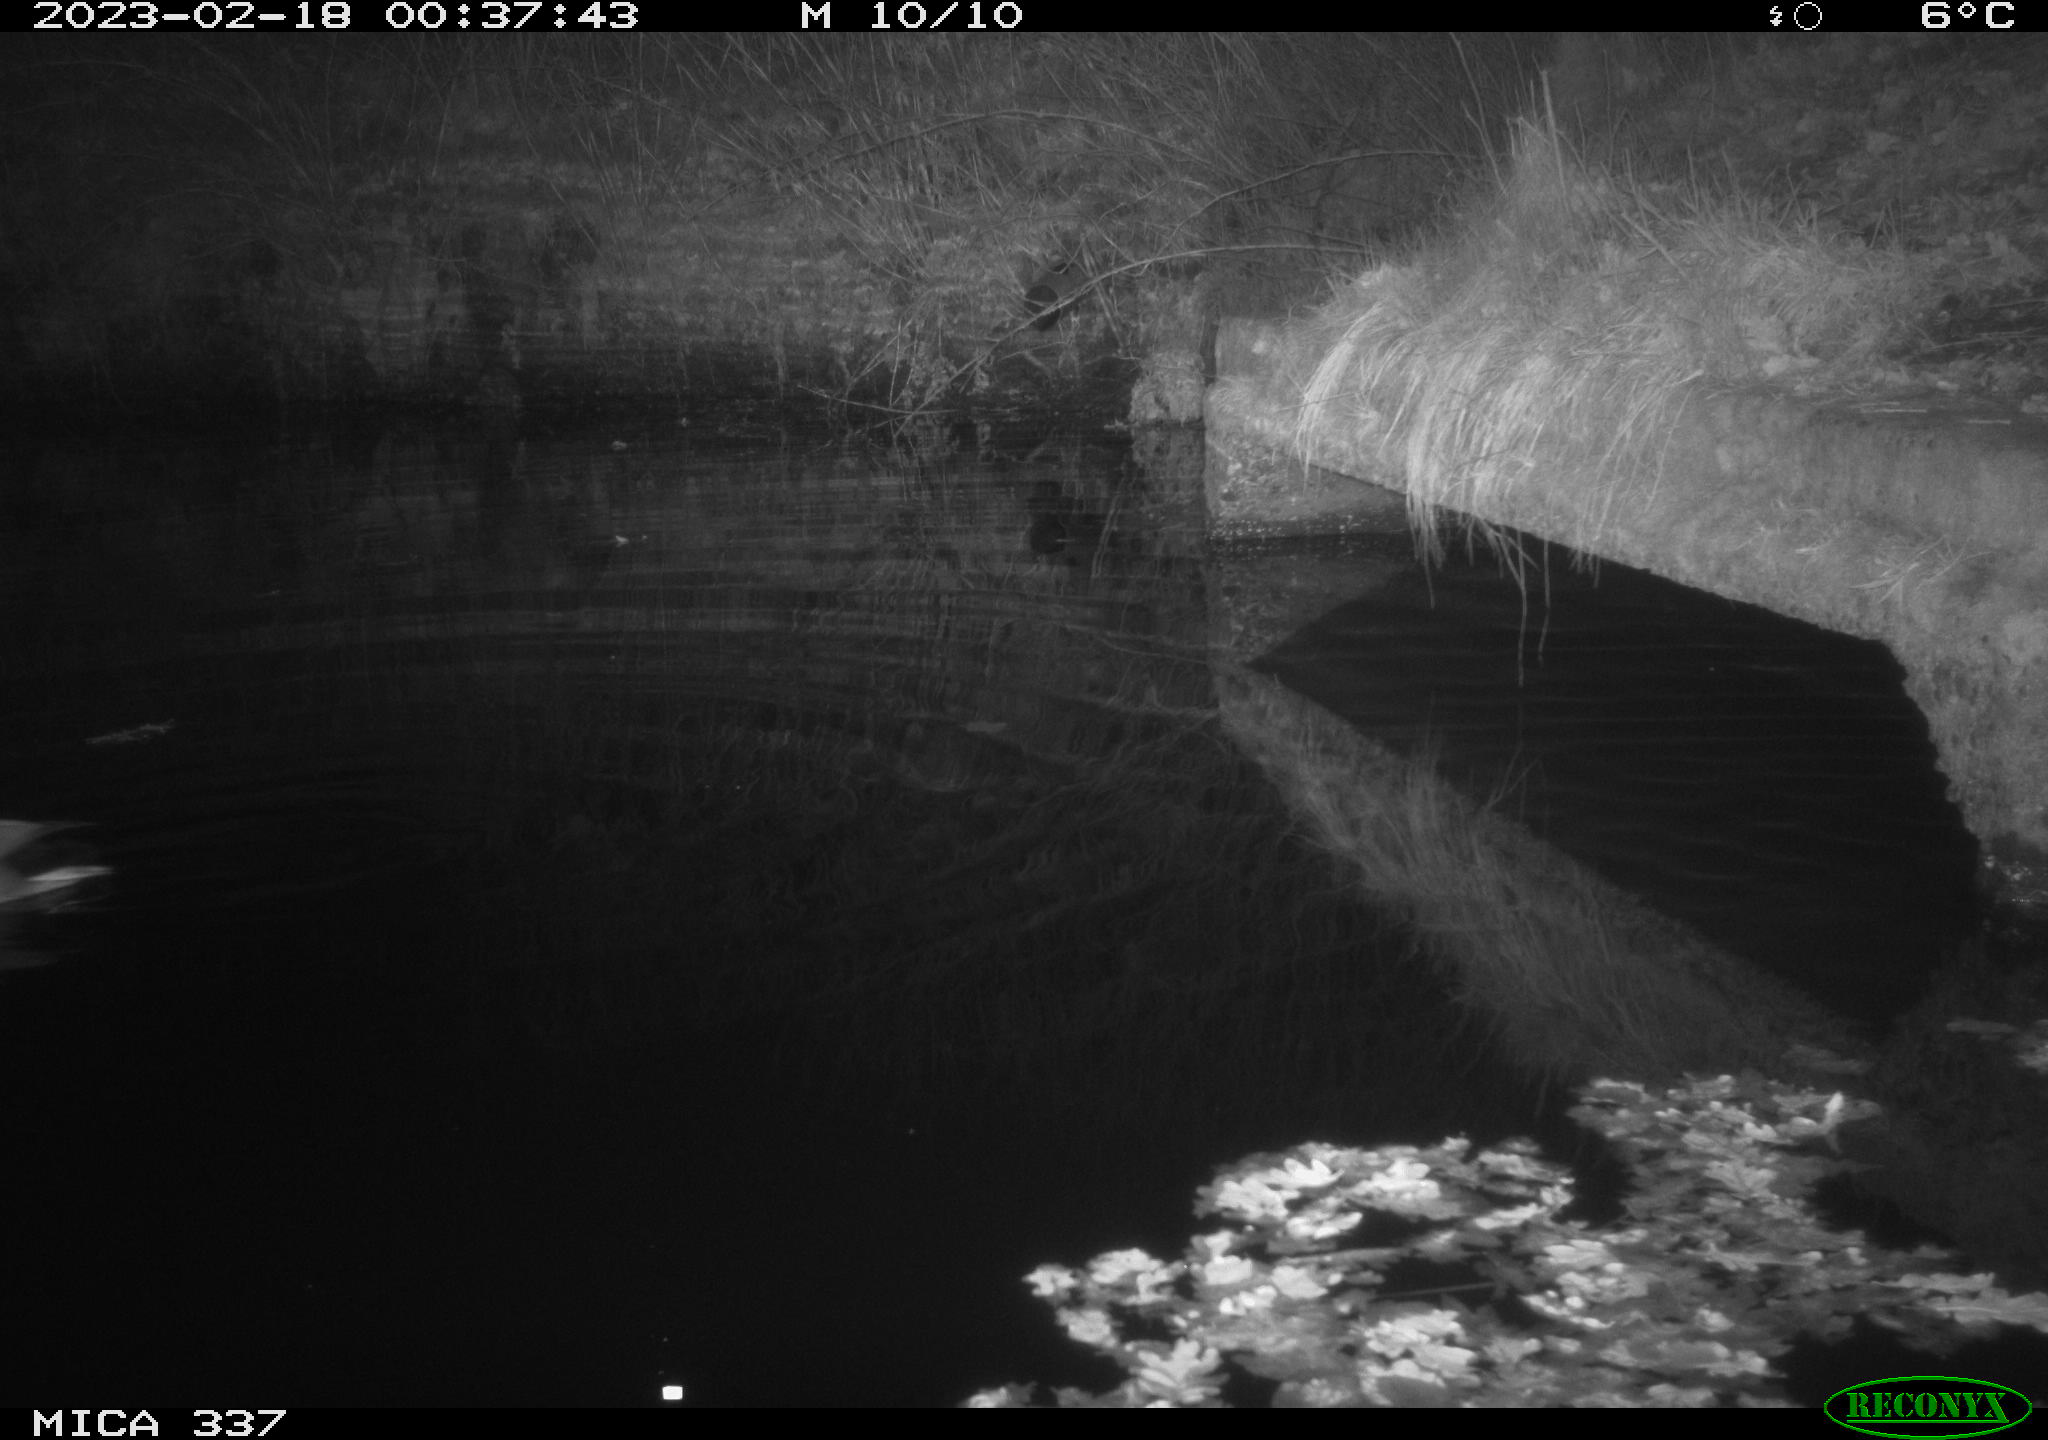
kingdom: Animalia
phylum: Chordata
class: Aves
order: Anseriformes
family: Anatidae
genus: Anas
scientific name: Anas
